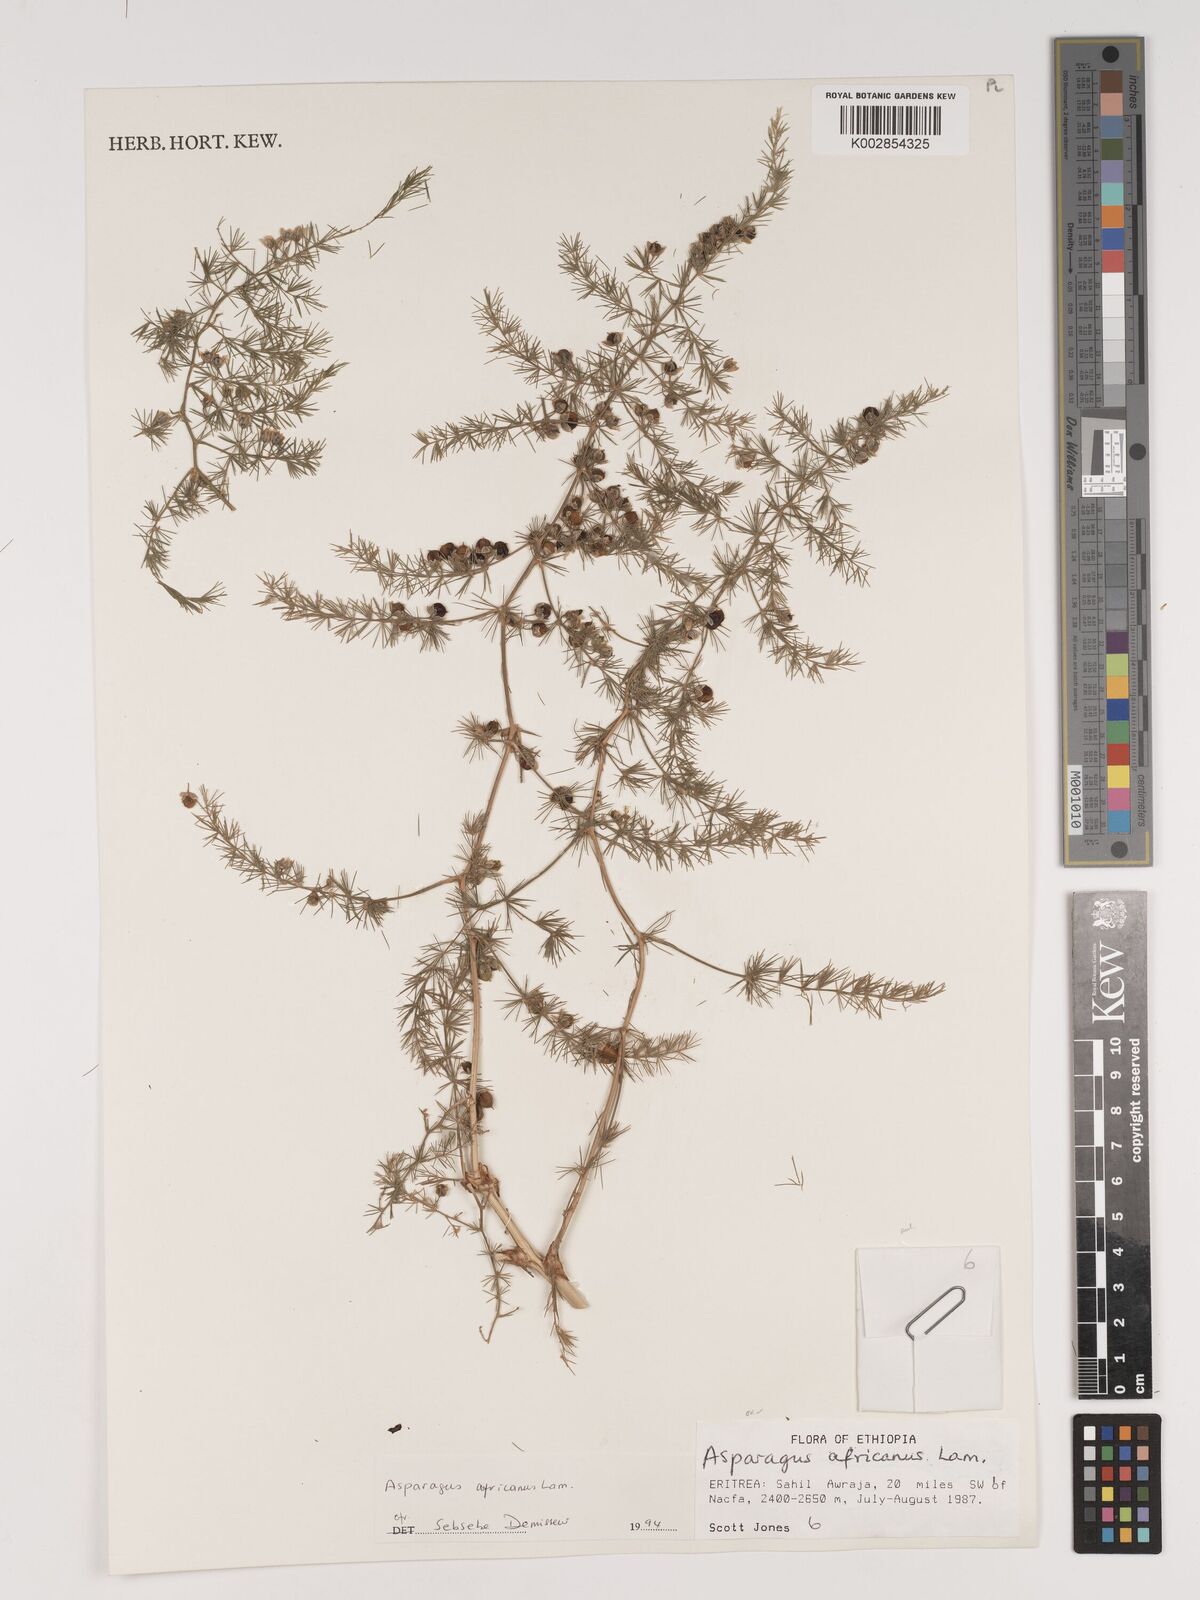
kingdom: Plantae
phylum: Tracheophyta
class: Liliopsida
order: Asparagales
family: Asparagaceae
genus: Asparagus
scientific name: Asparagus africanus
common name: Asparagus-fern
